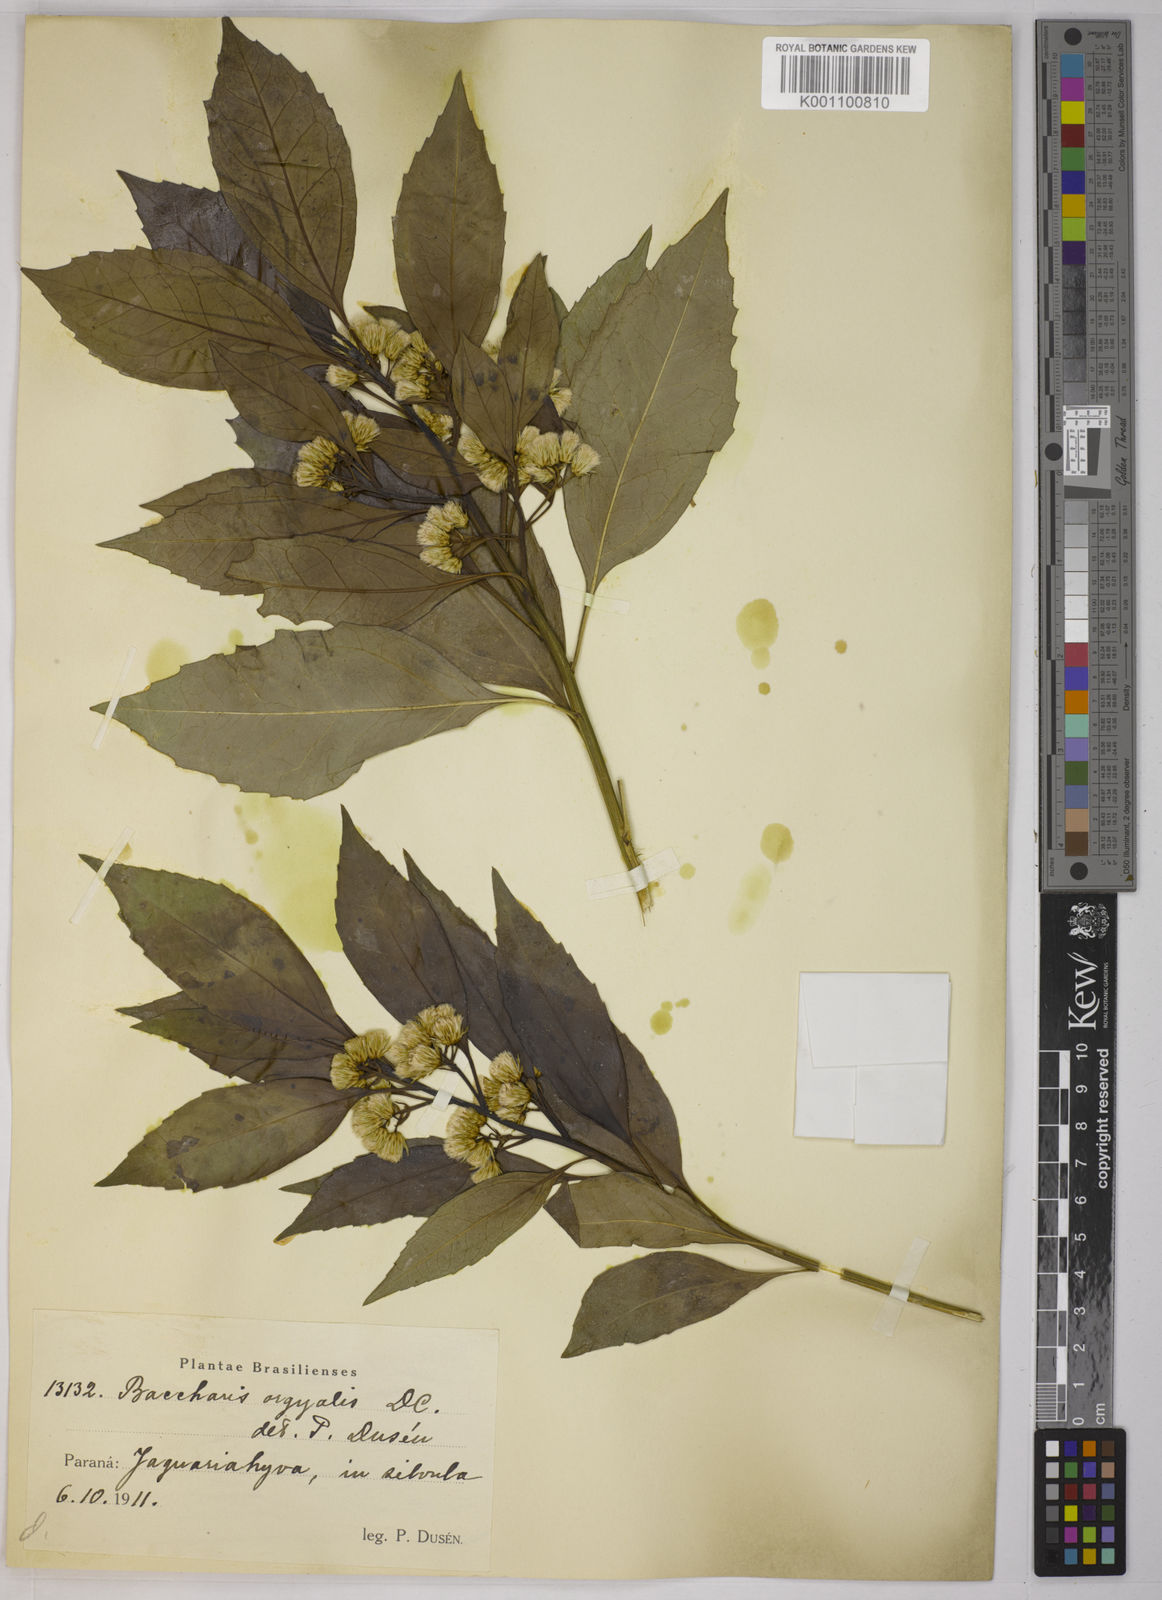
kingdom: Plantae
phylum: Tracheophyta
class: Magnoliopsida
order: Asterales
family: Asteraceae
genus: Baccharis
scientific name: Baccharis dentata
